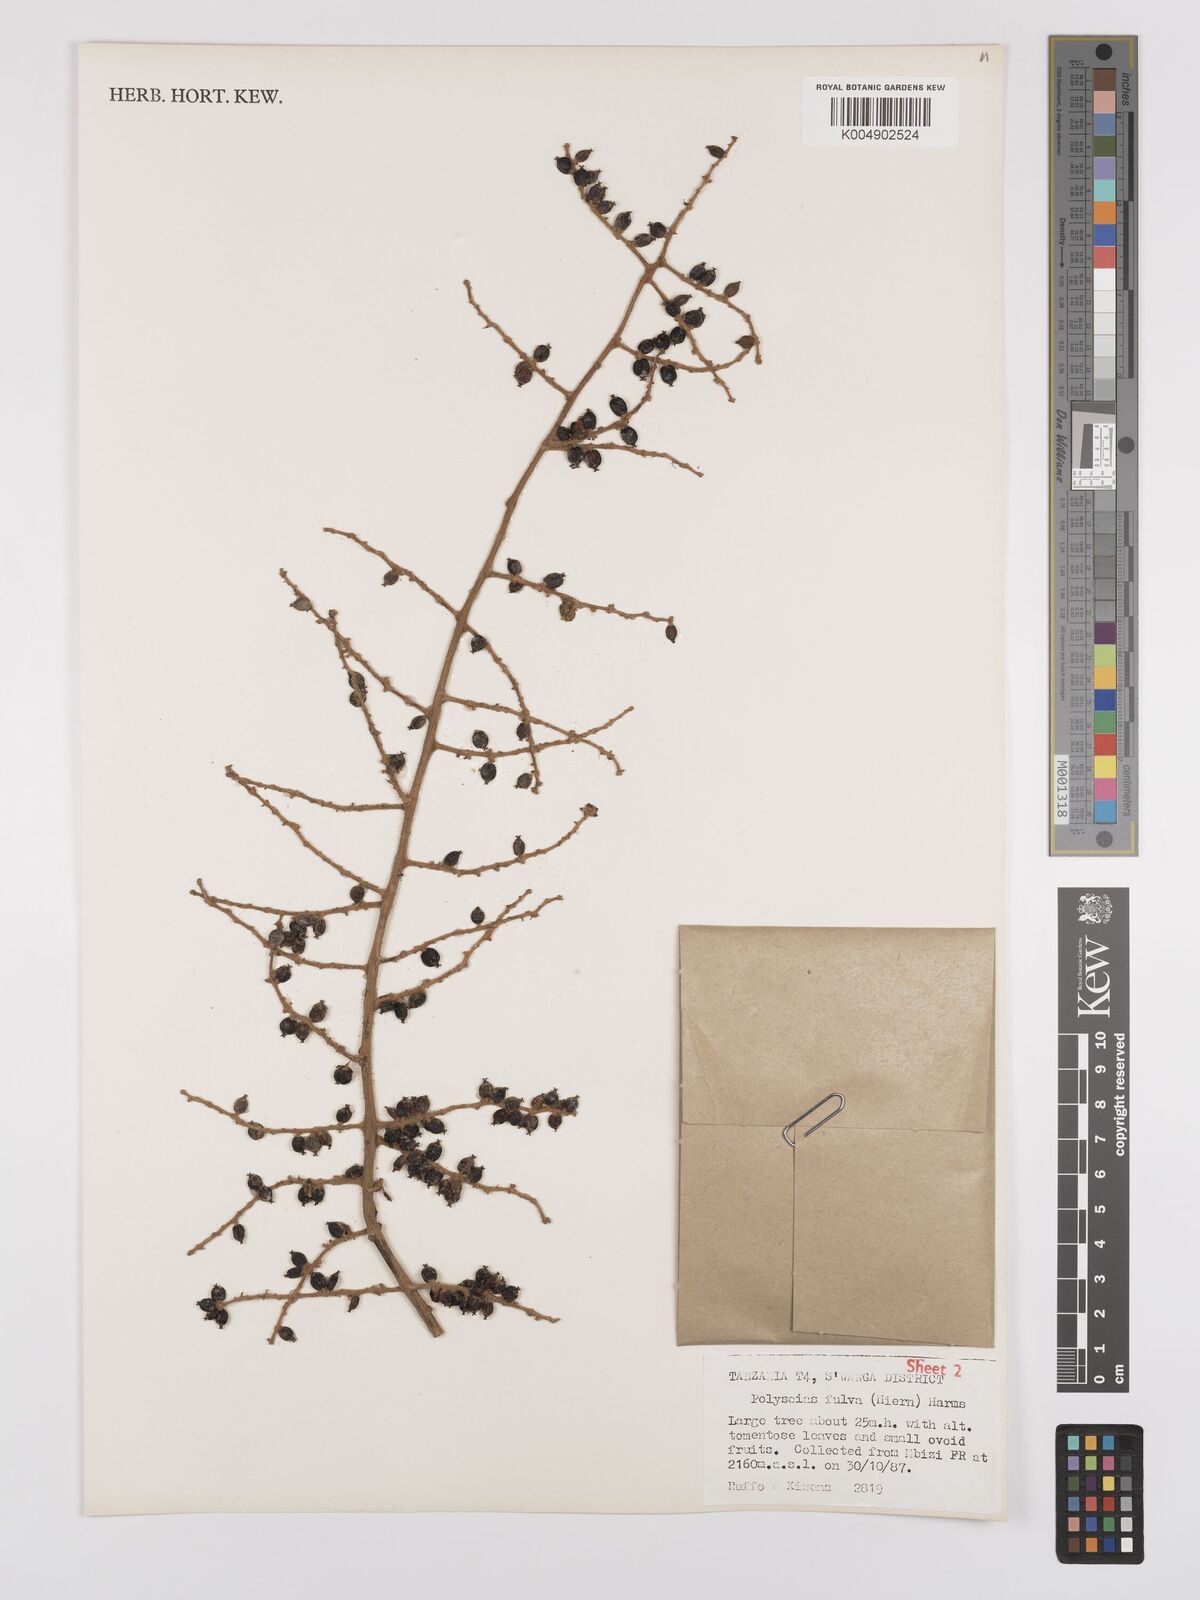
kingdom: Plantae
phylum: Tracheophyta
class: Magnoliopsida
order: Apiales
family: Araliaceae
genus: Polyscias
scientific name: Polyscias fulva
